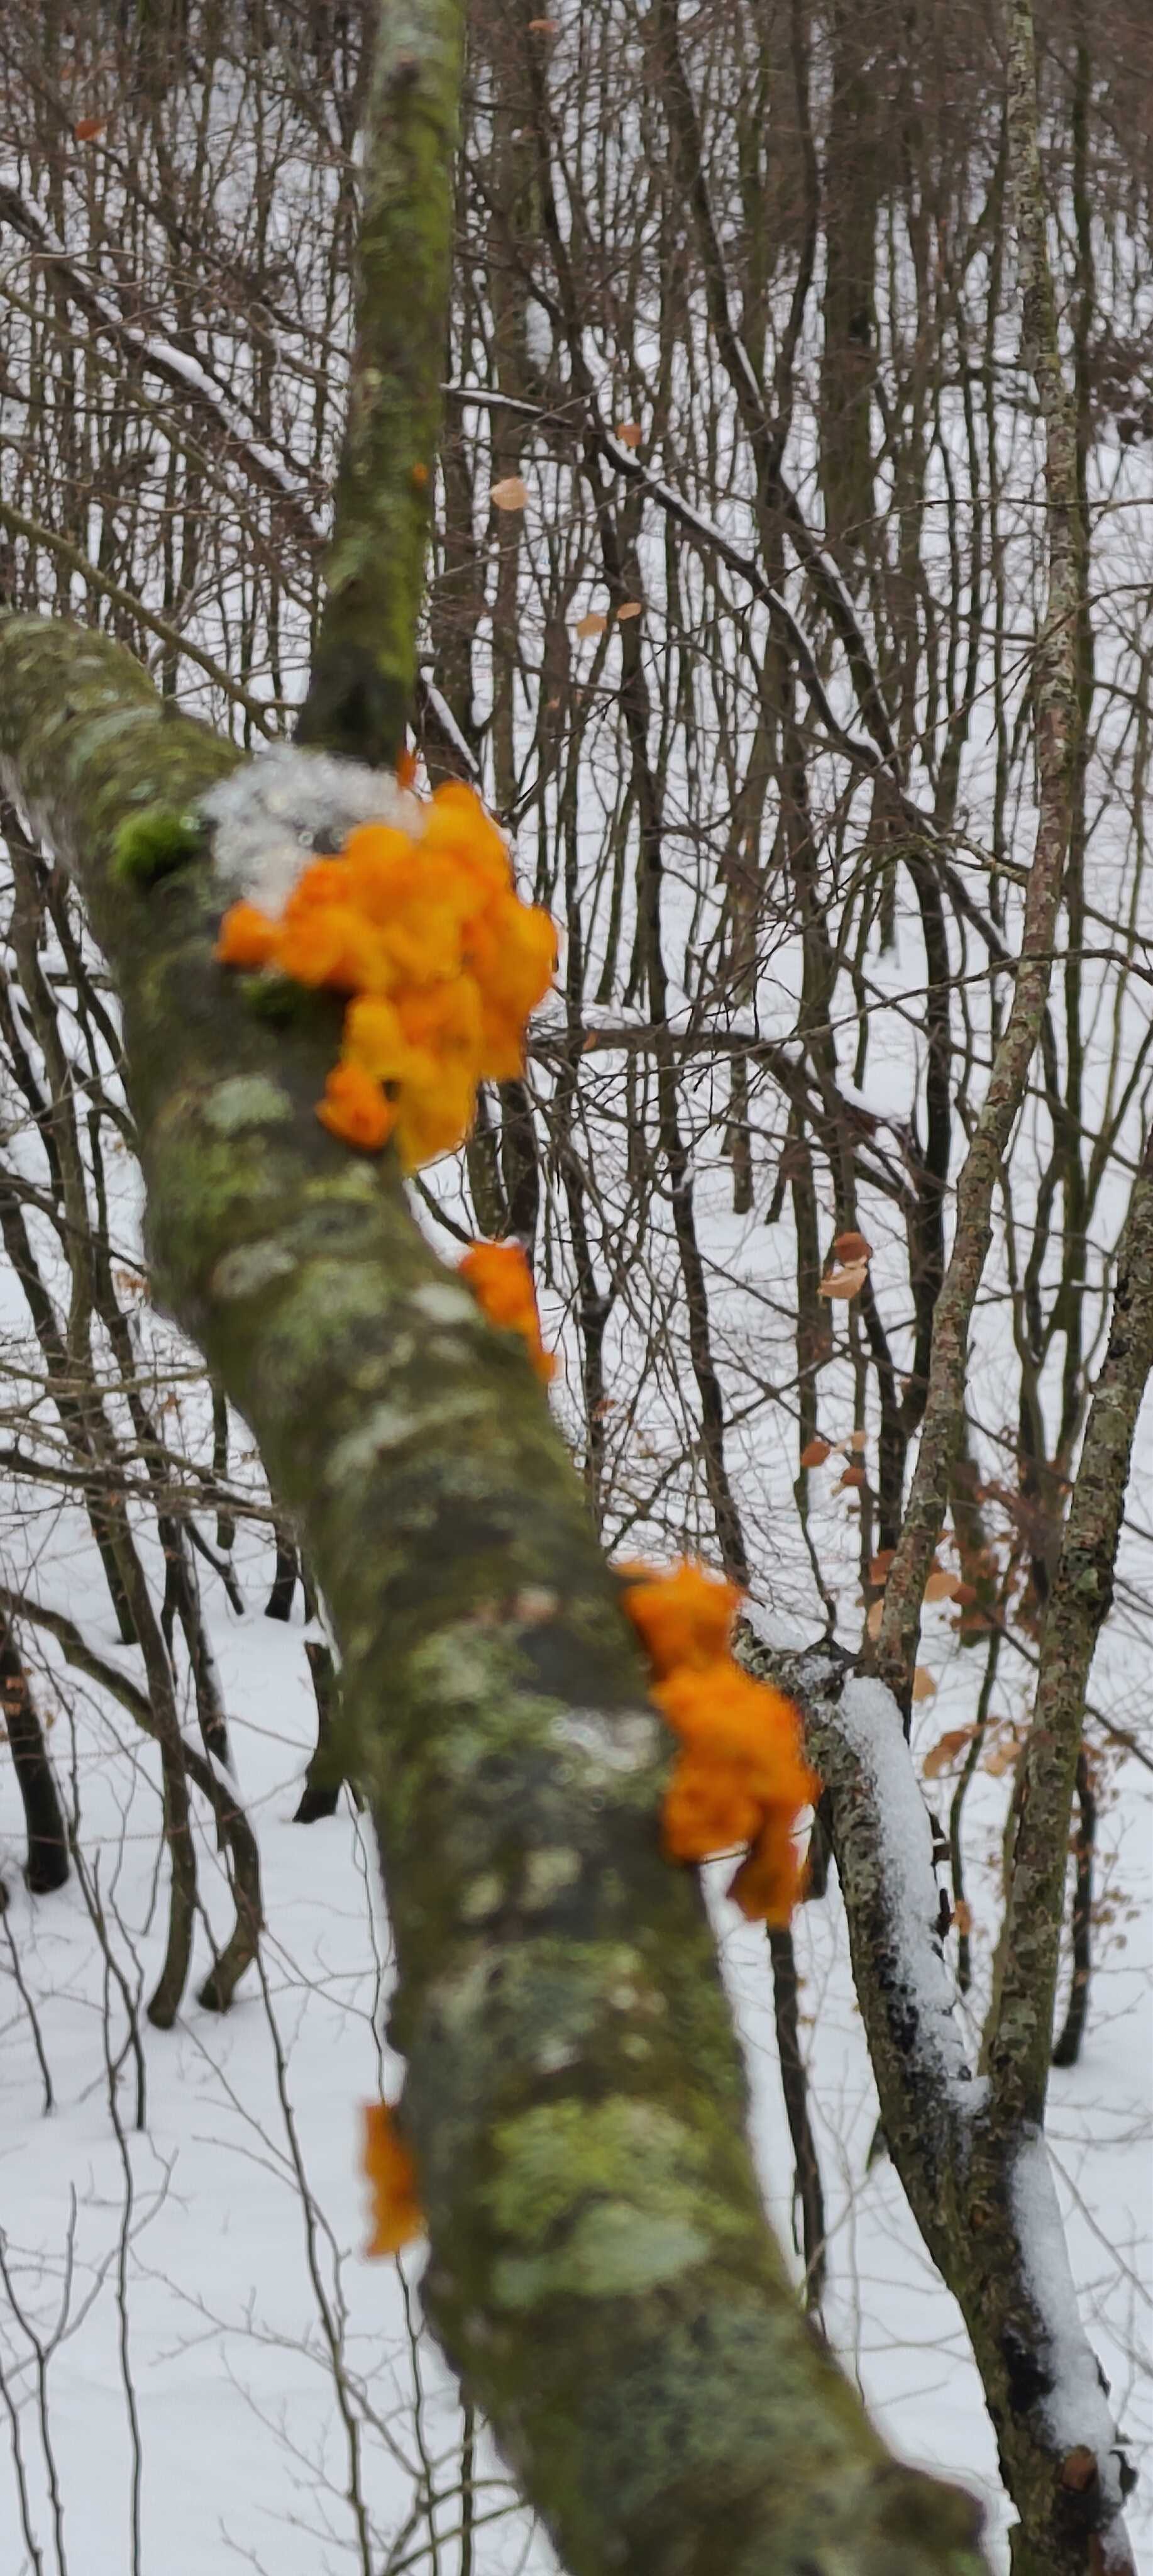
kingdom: Fungi
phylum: Basidiomycota
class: Tremellomycetes
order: Tremellales
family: Tremellaceae
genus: Tremella
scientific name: Tremella mesenterica
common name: gul bævresvamp
